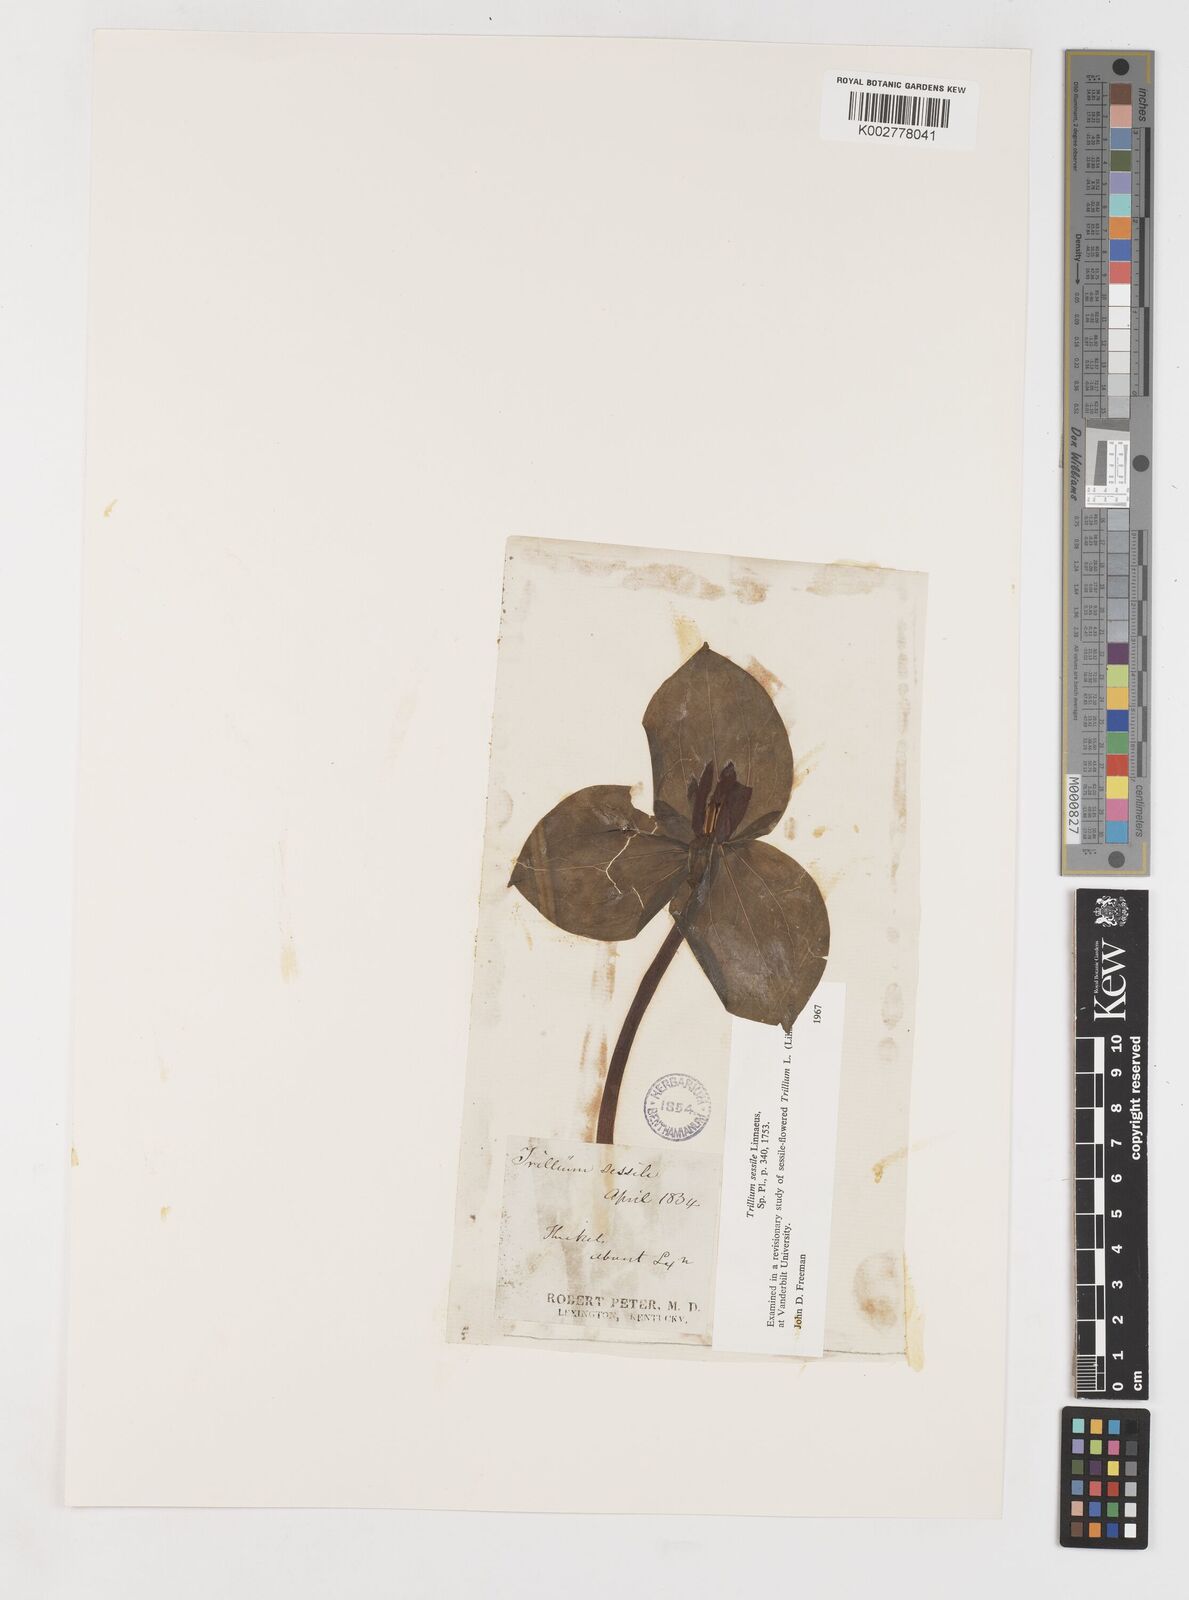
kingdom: Plantae
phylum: Tracheophyta
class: Liliopsida
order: Liliales
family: Melanthiaceae
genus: Trillium
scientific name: Trillium sessile
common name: Sessile trillium
